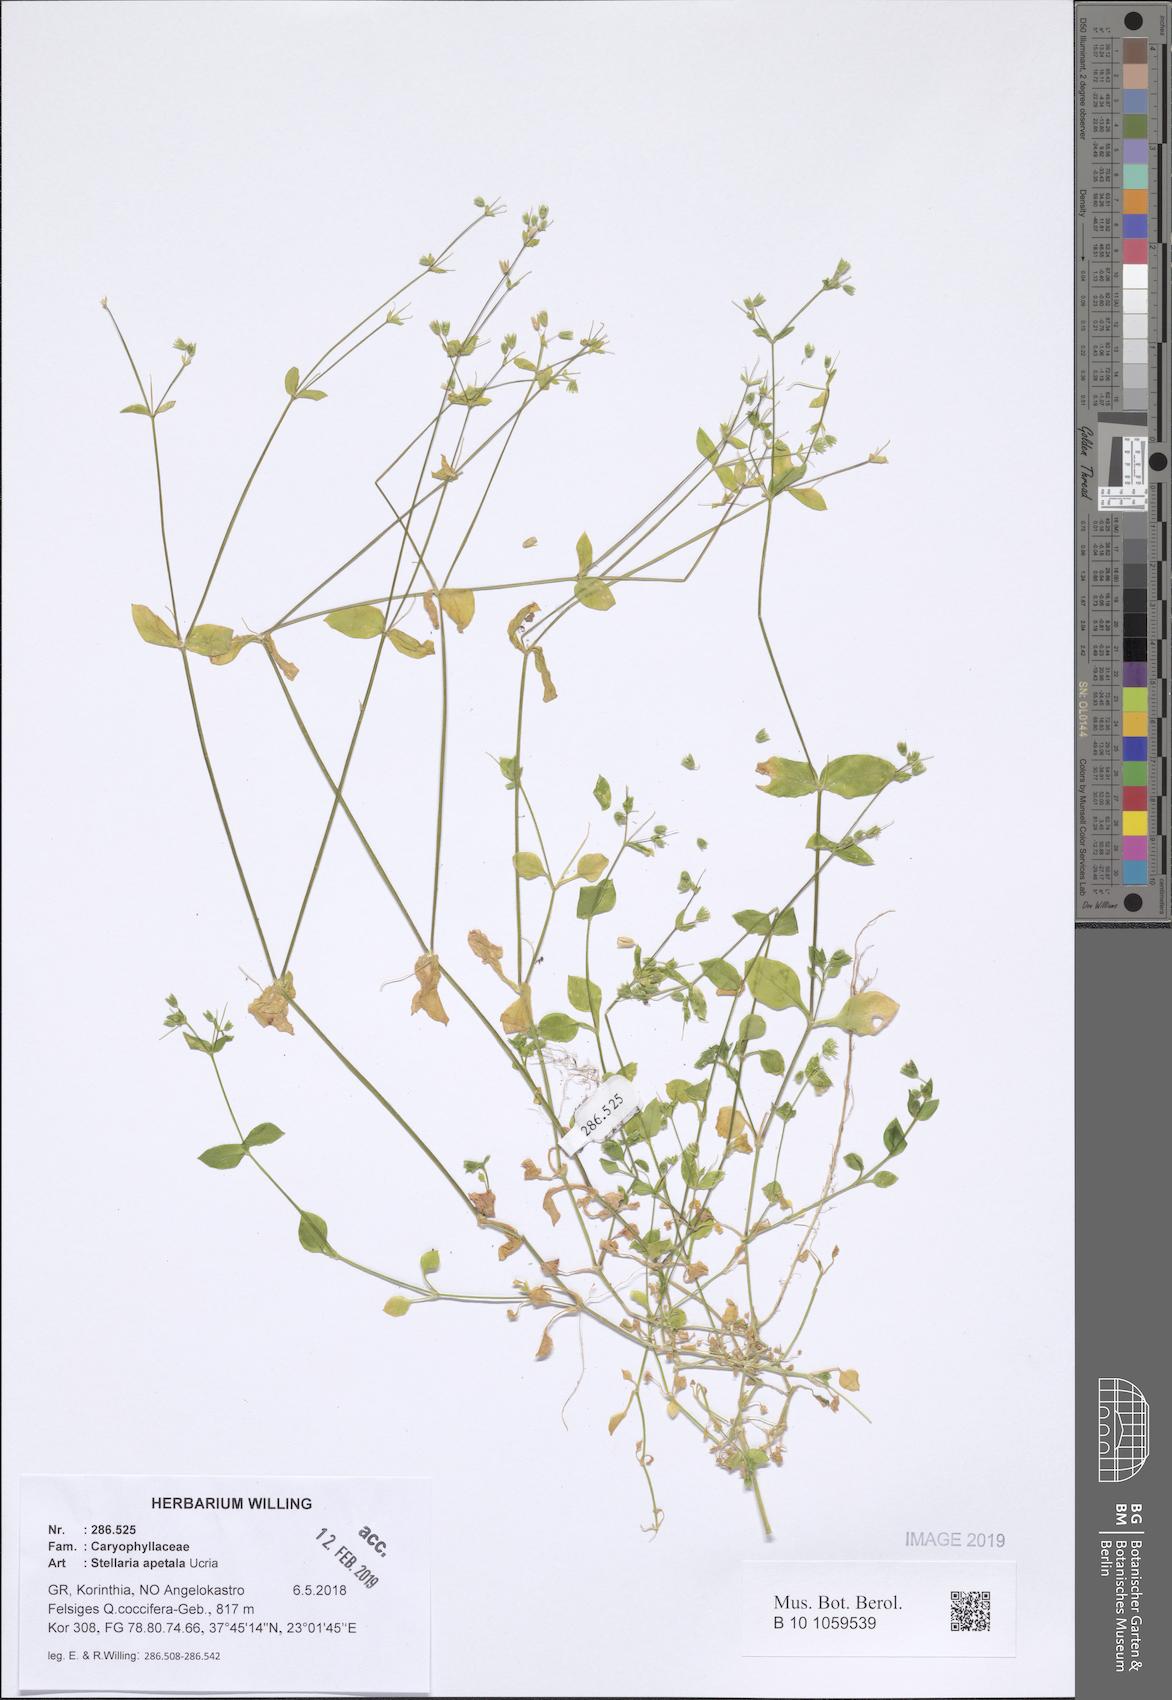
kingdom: Plantae
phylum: Tracheophyta
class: Magnoliopsida
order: Caryophyllales
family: Caryophyllaceae
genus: Stellaria
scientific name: Stellaria apetala
